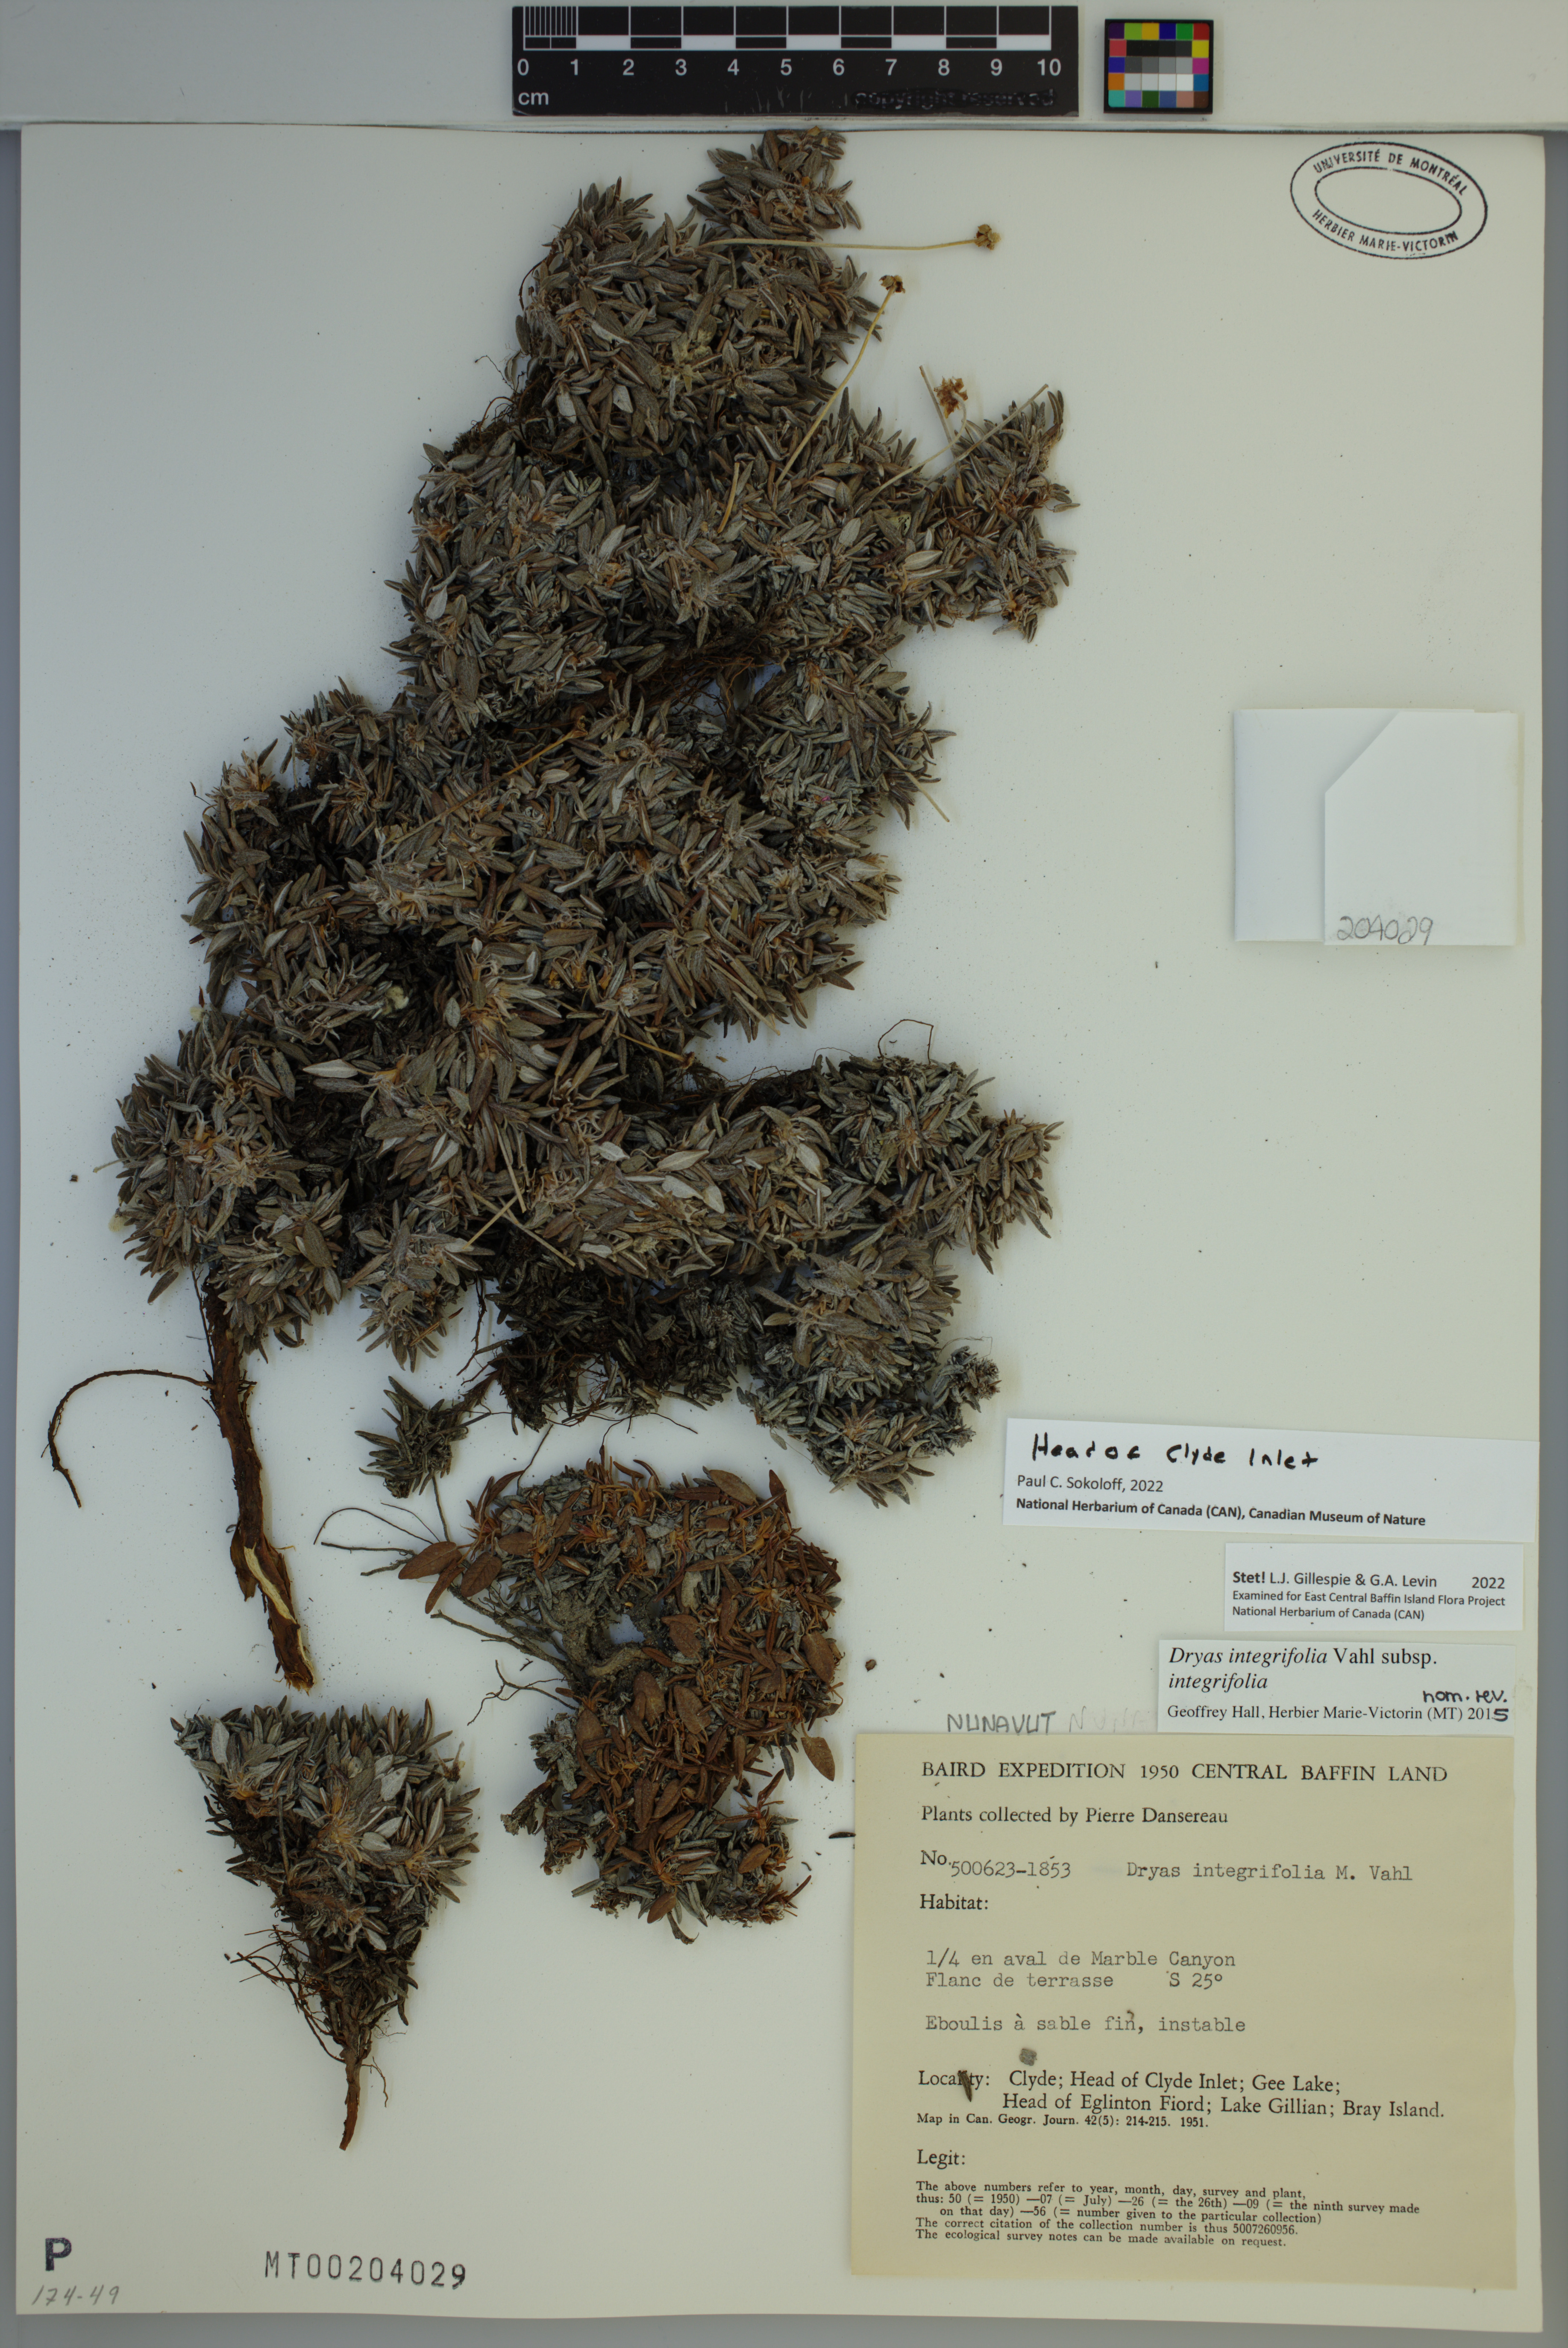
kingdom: Plantae
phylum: Tracheophyta
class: Magnoliopsida
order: Rosales
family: Rosaceae
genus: Dryas
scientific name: Dryas integrifolia
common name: Entire-leaved mountain avens
